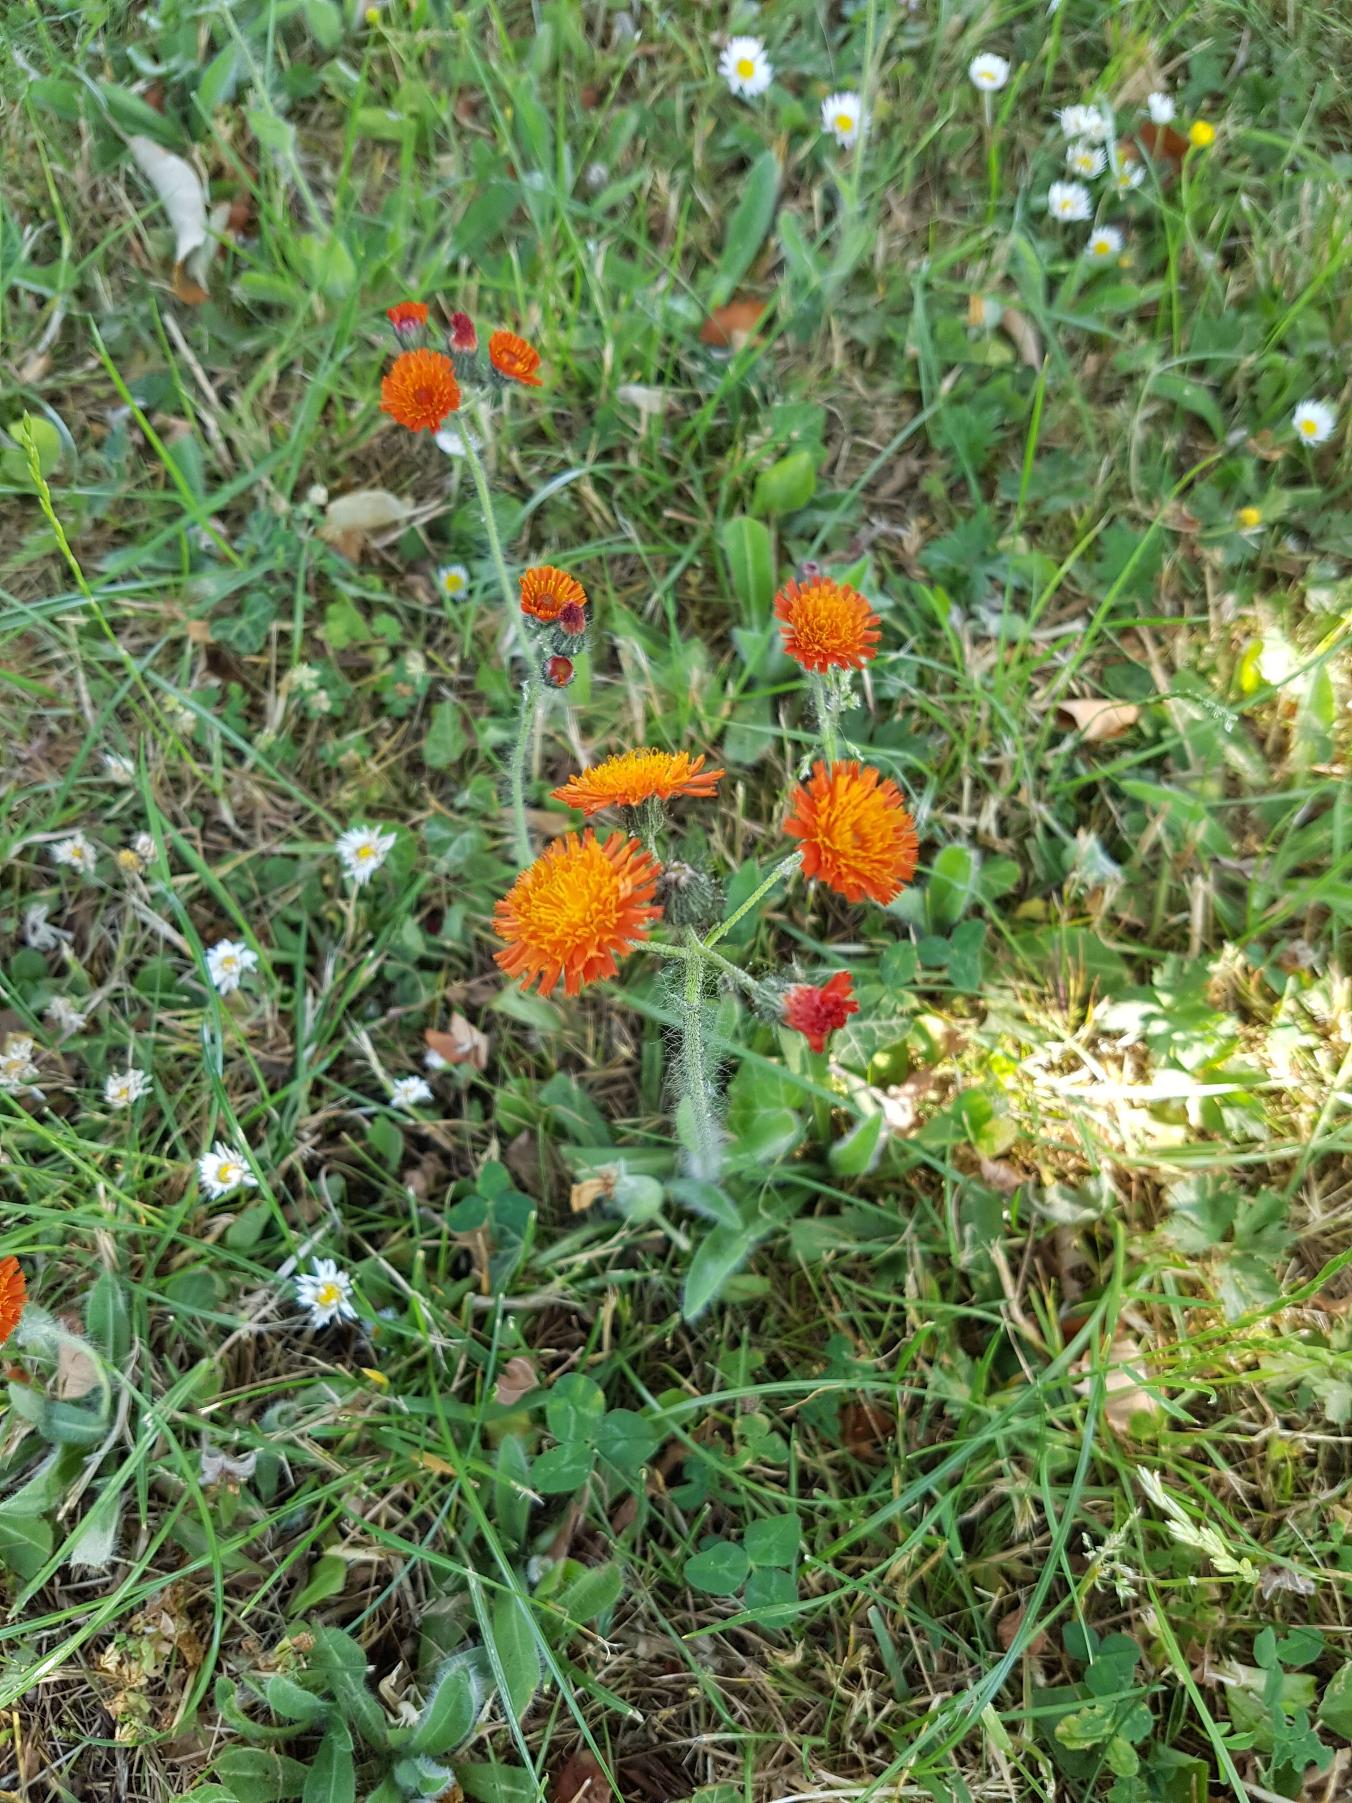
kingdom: Plantae
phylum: Tracheophyta
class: Magnoliopsida
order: Asterales
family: Asteraceae
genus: Pilosella
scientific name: Pilosella aurantiaca
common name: Pomerans-høgeurt
